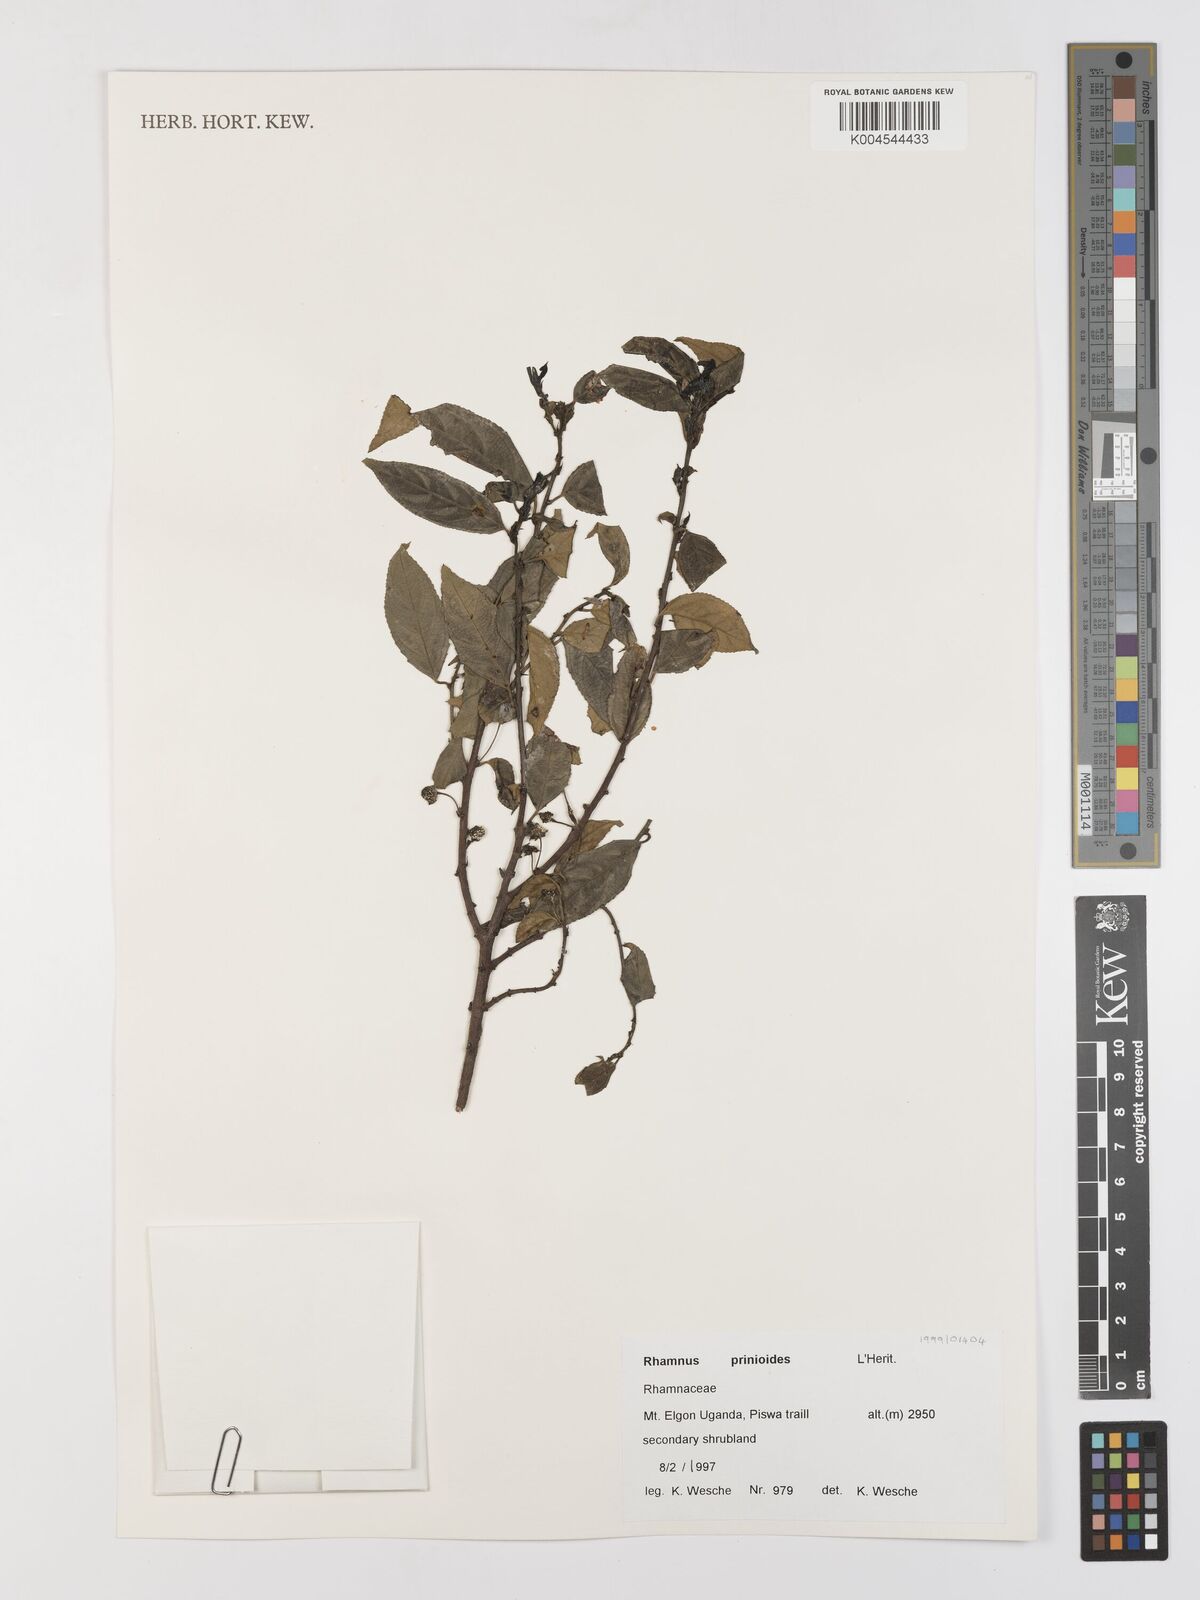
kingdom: Plantae
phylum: Tracheophyta
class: Magnoliopsida
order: Rosales
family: Rhamnaceae
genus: Rhamnus
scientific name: Rhamnus prinoides
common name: Dogwood
